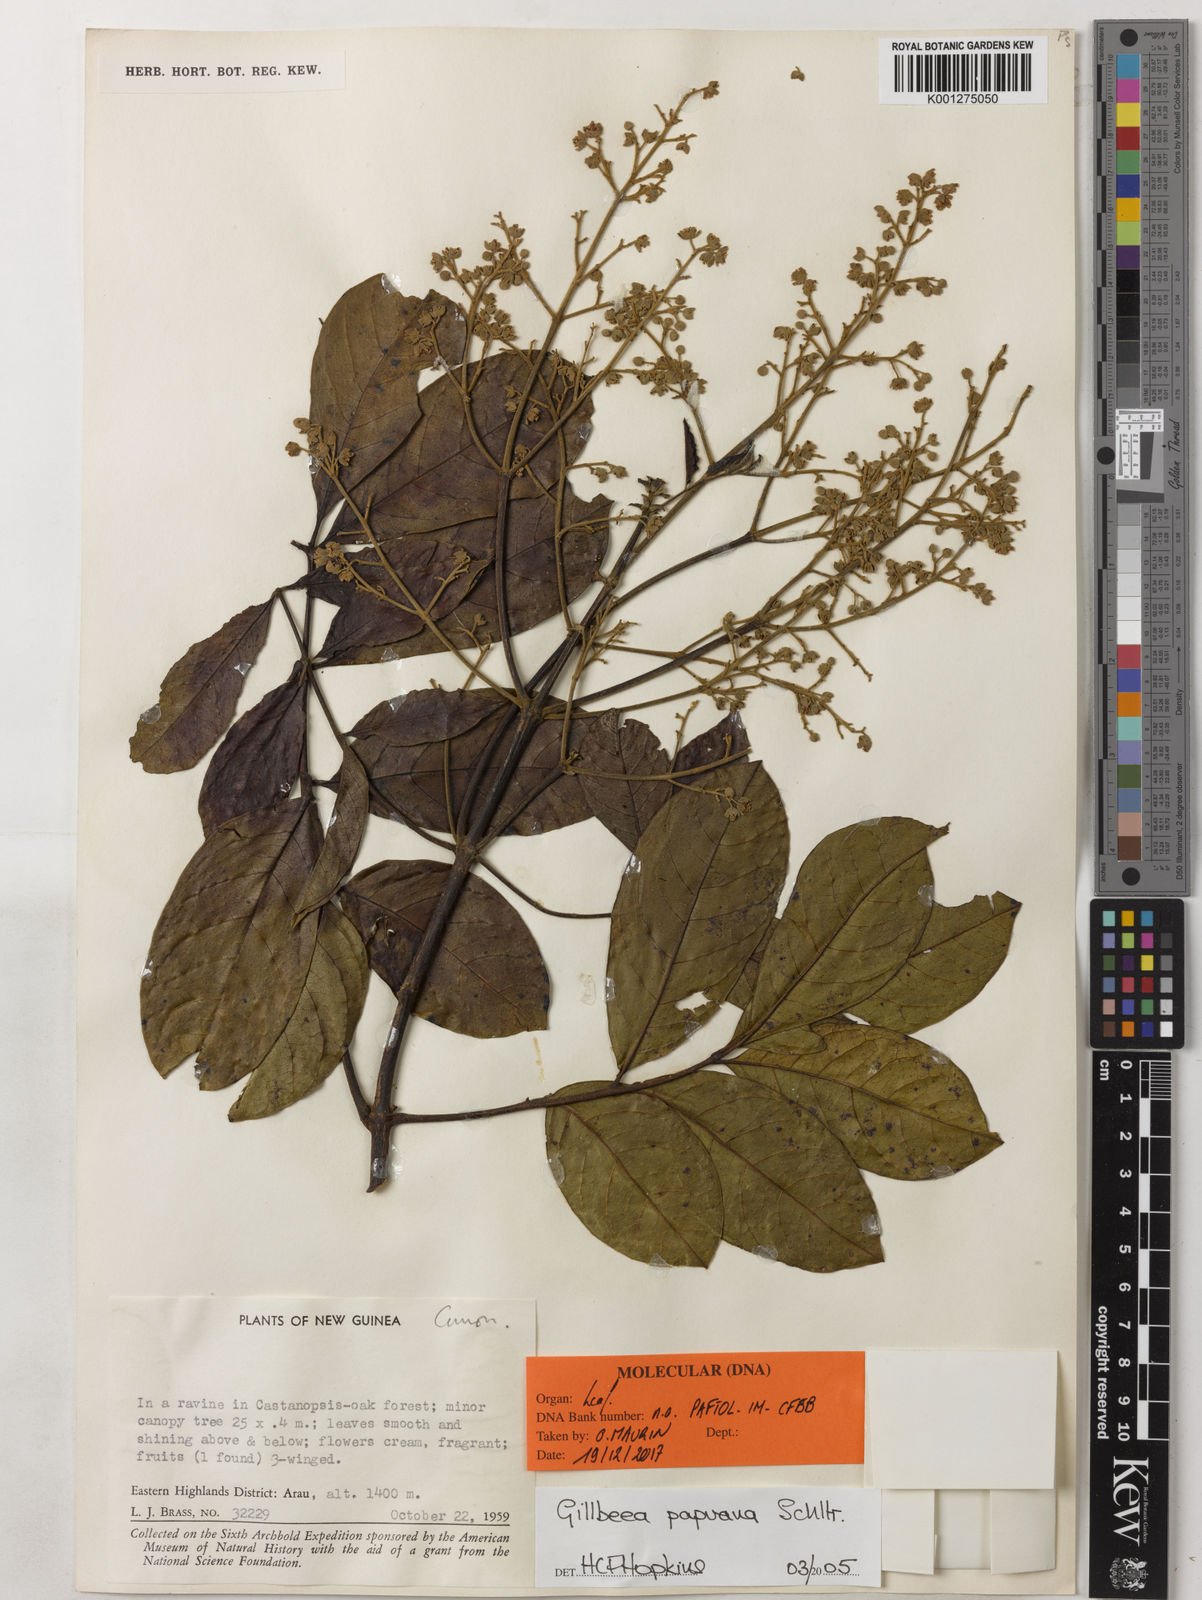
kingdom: Plantae
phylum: Tracheophyta
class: Magnoliopsida
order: Oxalidales
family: Cunoniaceae
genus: Gillbeea
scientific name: Gillbeea papuana
